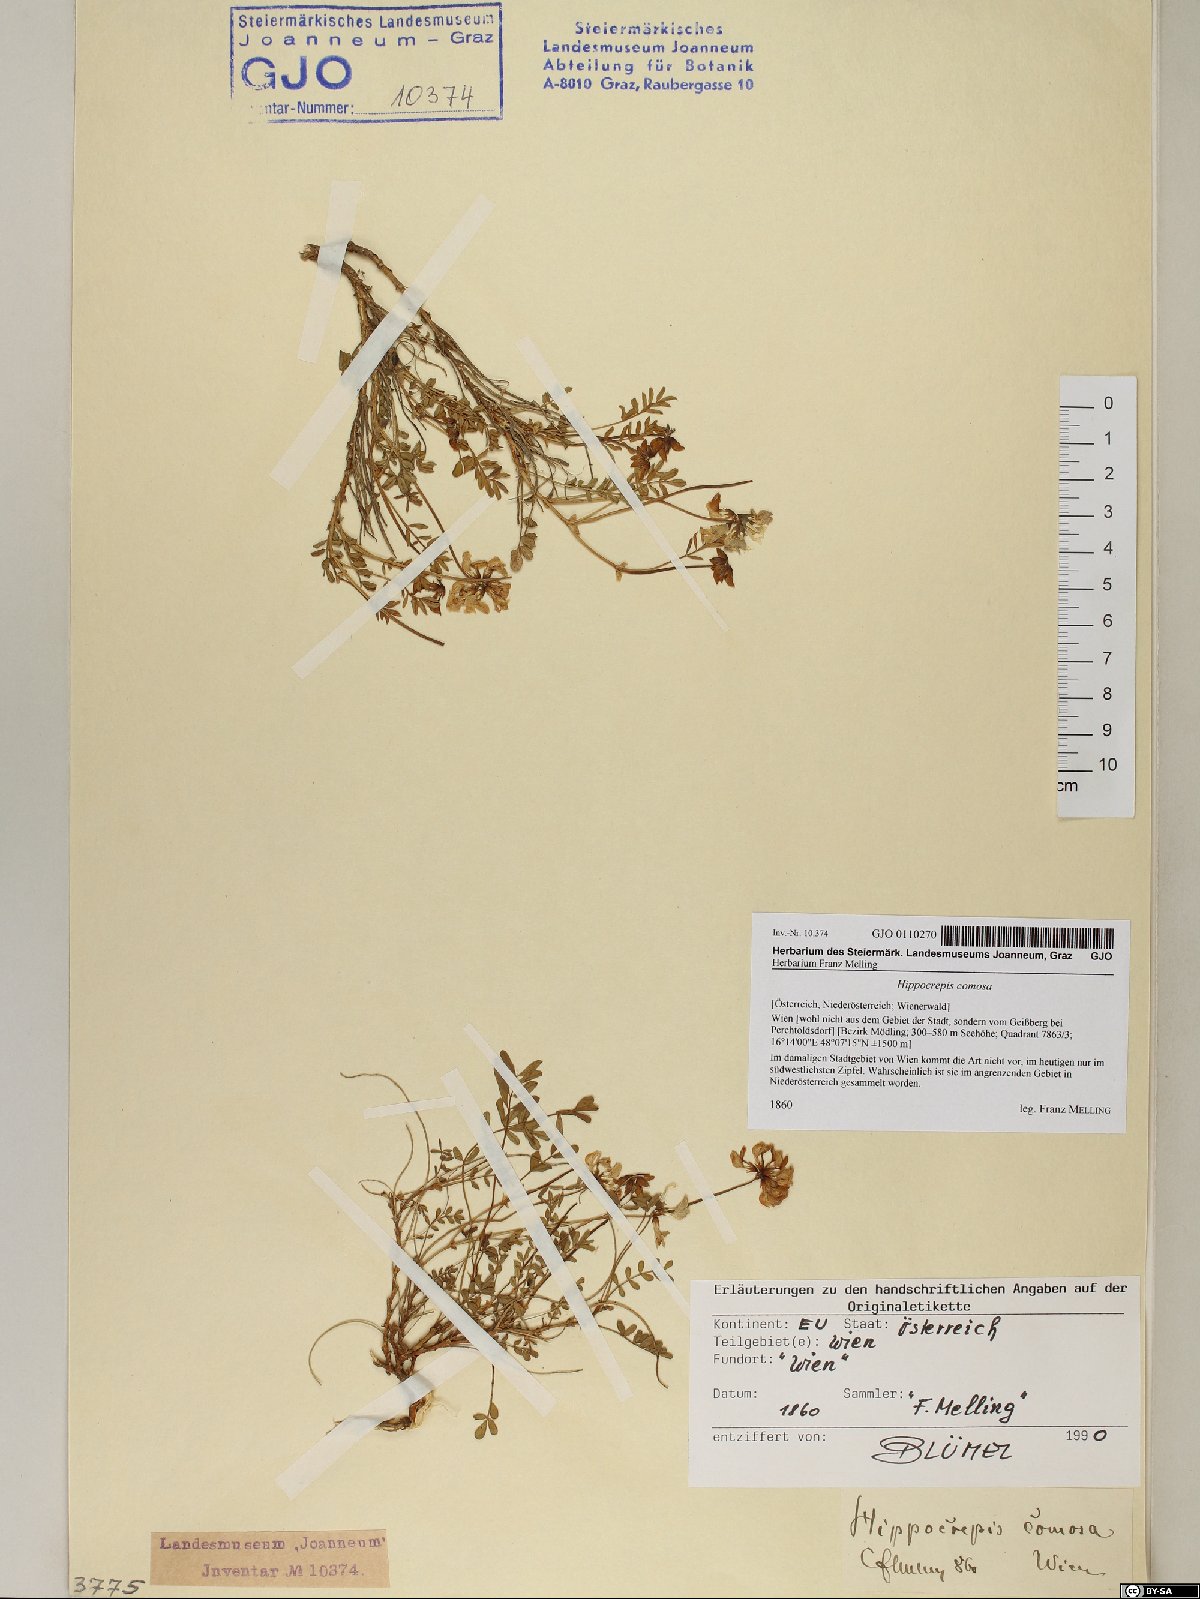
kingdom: Plantae
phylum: Tracheophyta
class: Magnoliopsida
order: Fabales
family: Fabaceae
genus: Hippocrepis
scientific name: Hippocrepis comosa
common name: Horseshoe vetch
